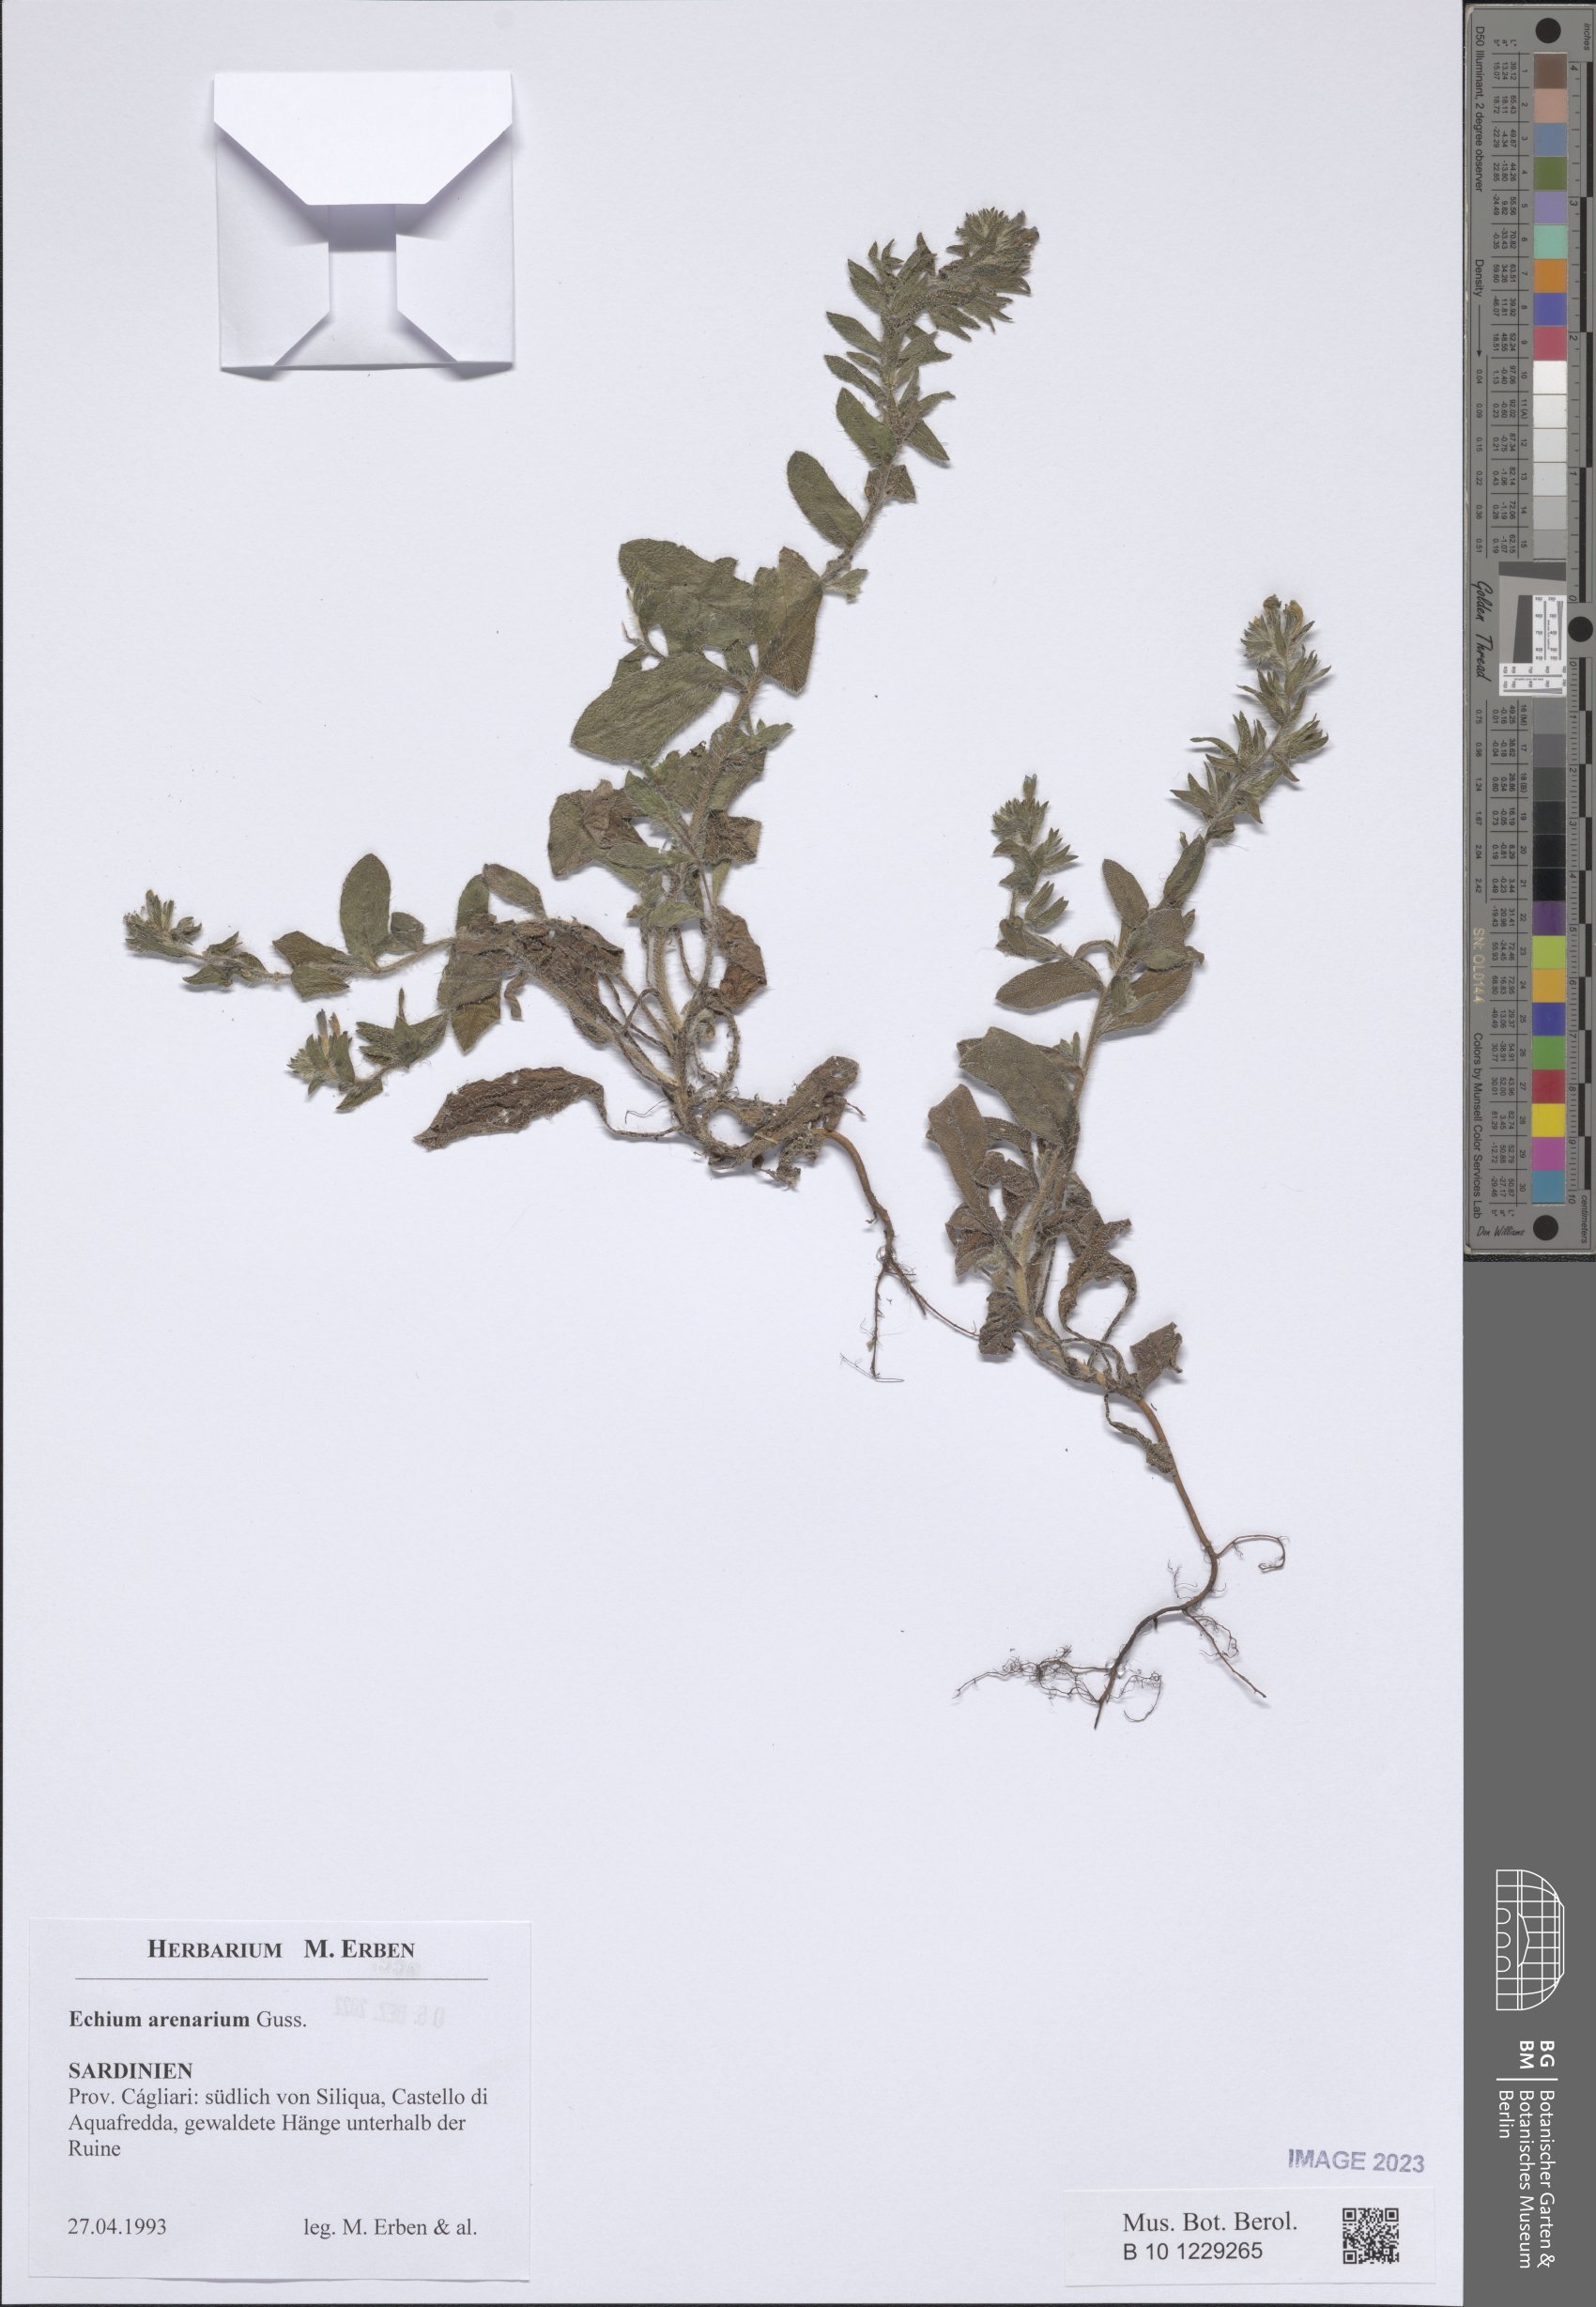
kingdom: Plantae
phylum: Tracheophyta
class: Magnoliopsida
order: Boraginales
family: Boraginaceae
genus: Echium
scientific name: Echium arenarium
